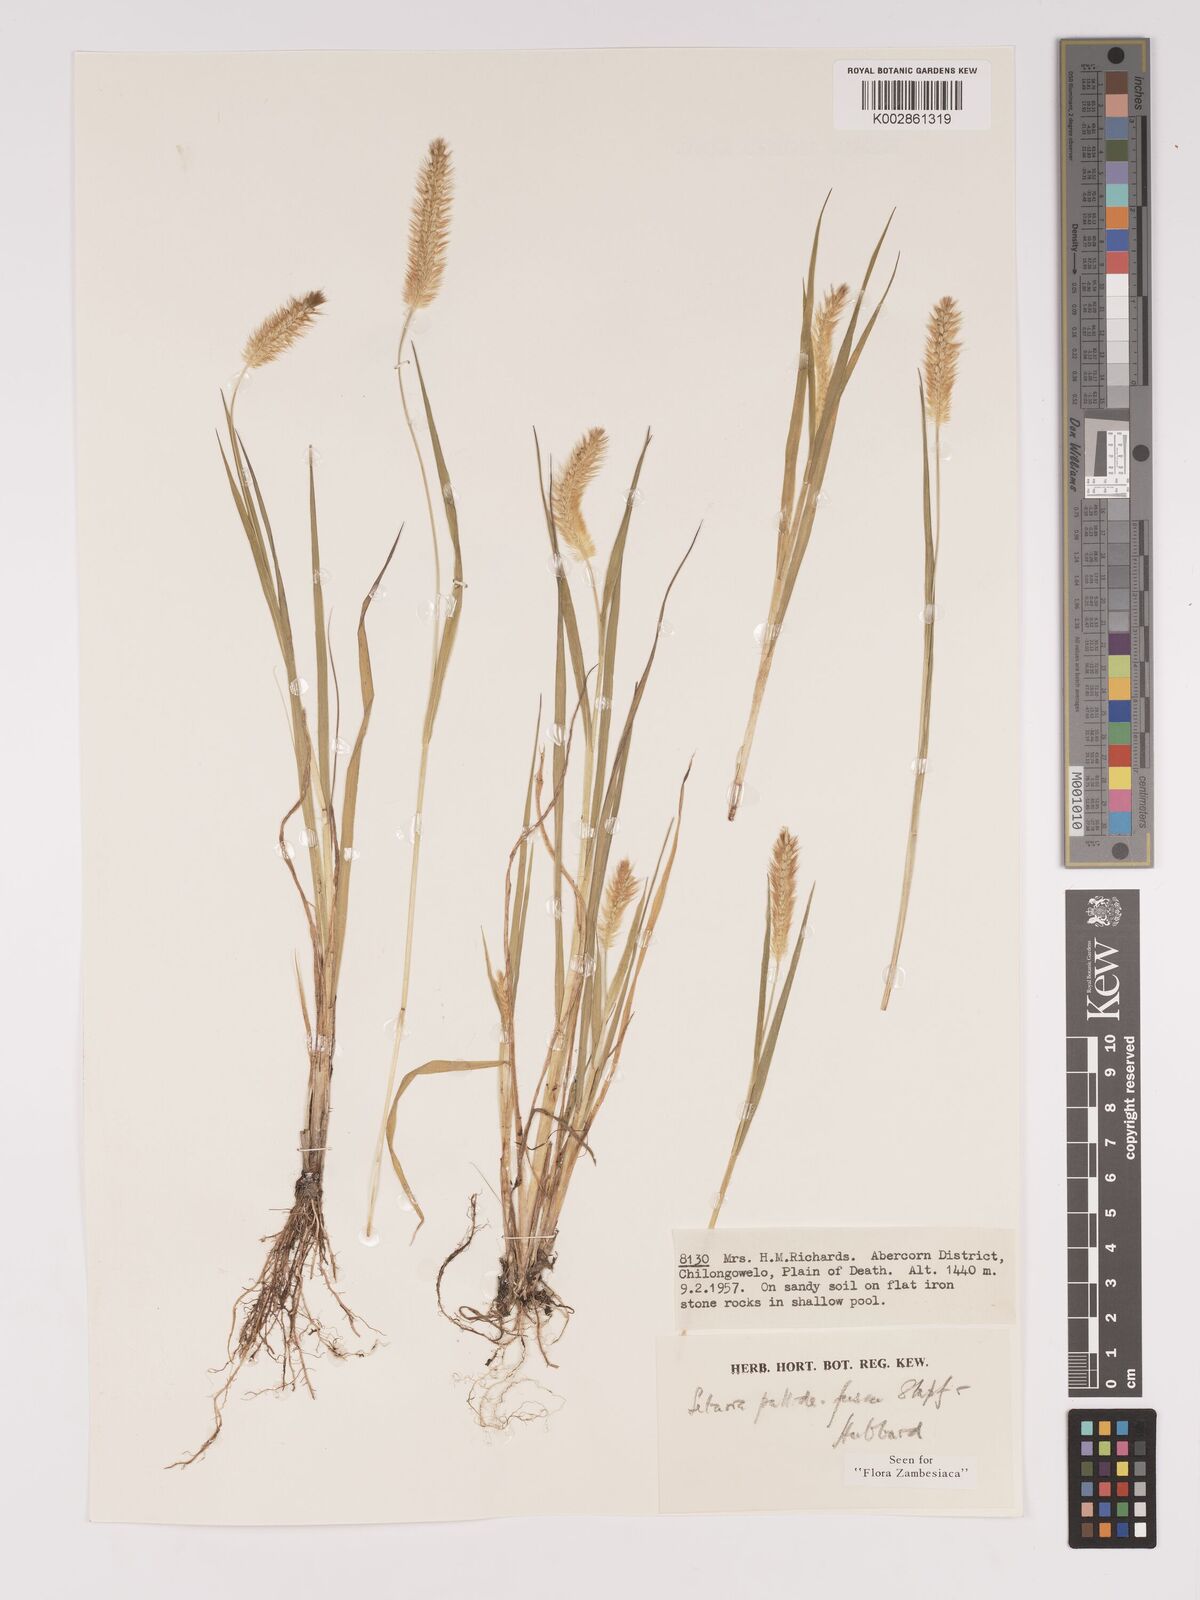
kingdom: Plantae
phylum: Tracheophyta
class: Liliopsida
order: Poales
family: Poaceae
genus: Setaria
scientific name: Setaria pumila
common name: Yellow bristle-grass
